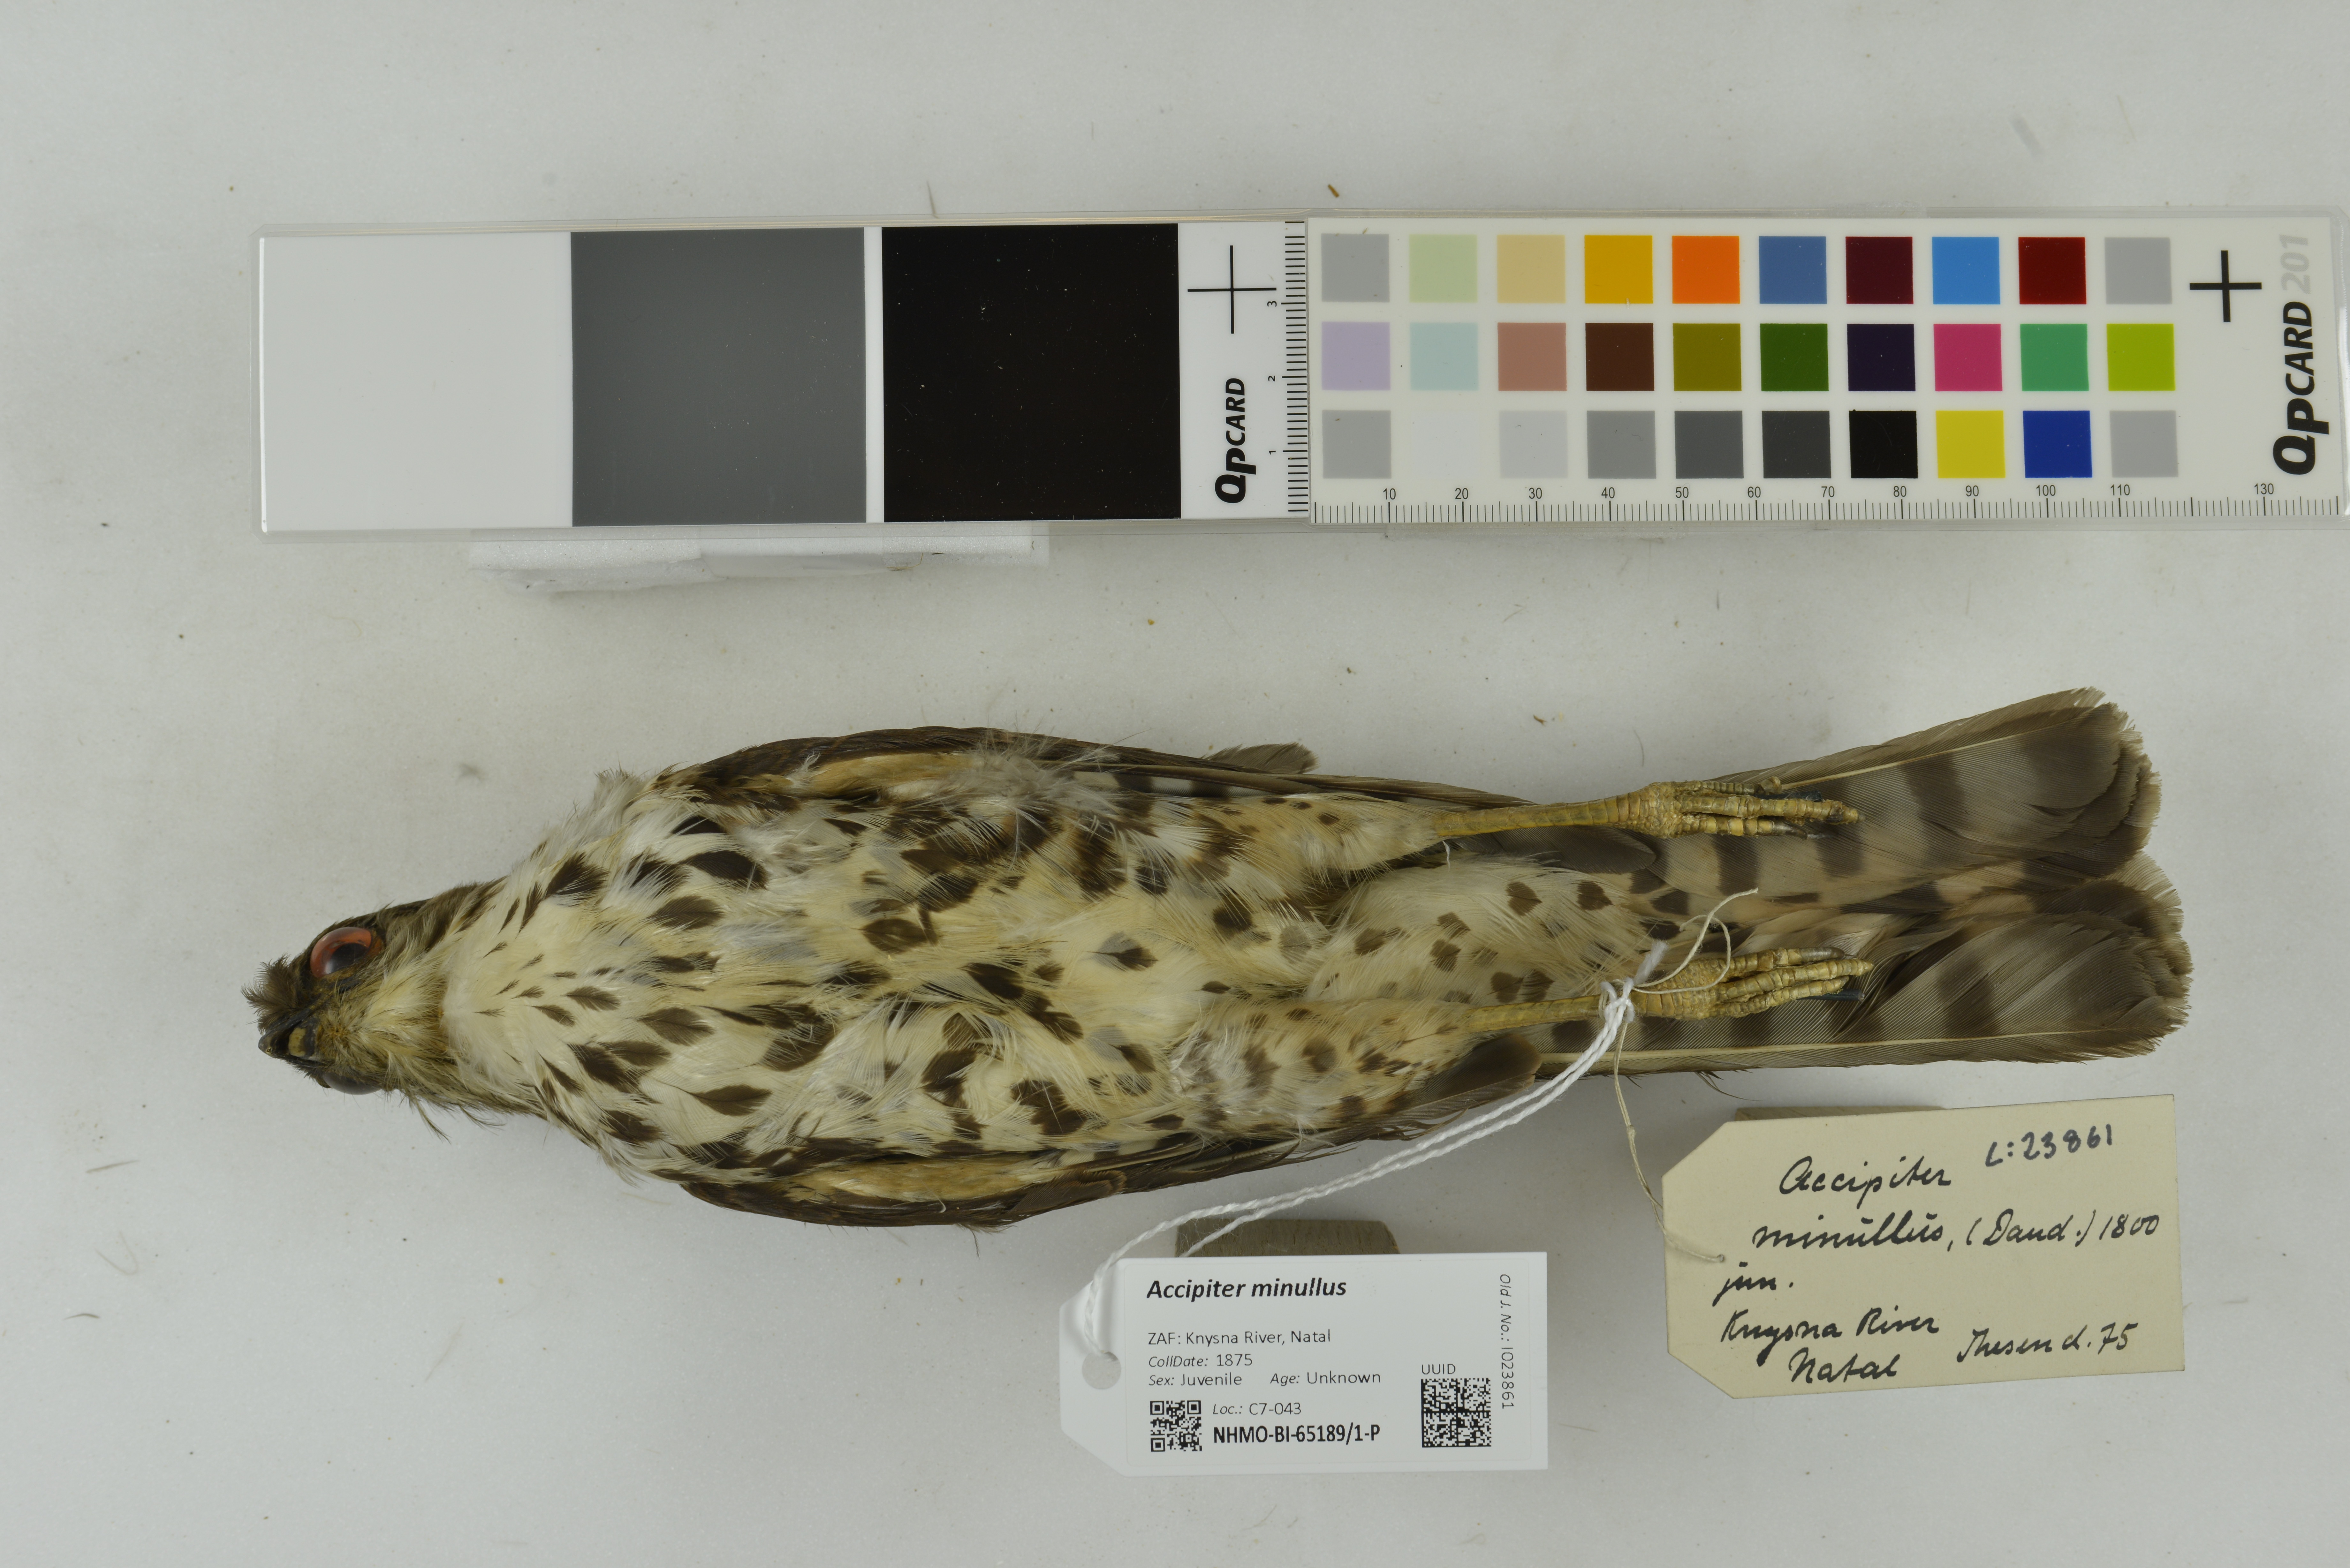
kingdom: Animalia
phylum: Chordata
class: Aves
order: Accipitriformes
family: Accipitridae
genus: Accipiter
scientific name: Accipiter minullus
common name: Little sparrowhawk
